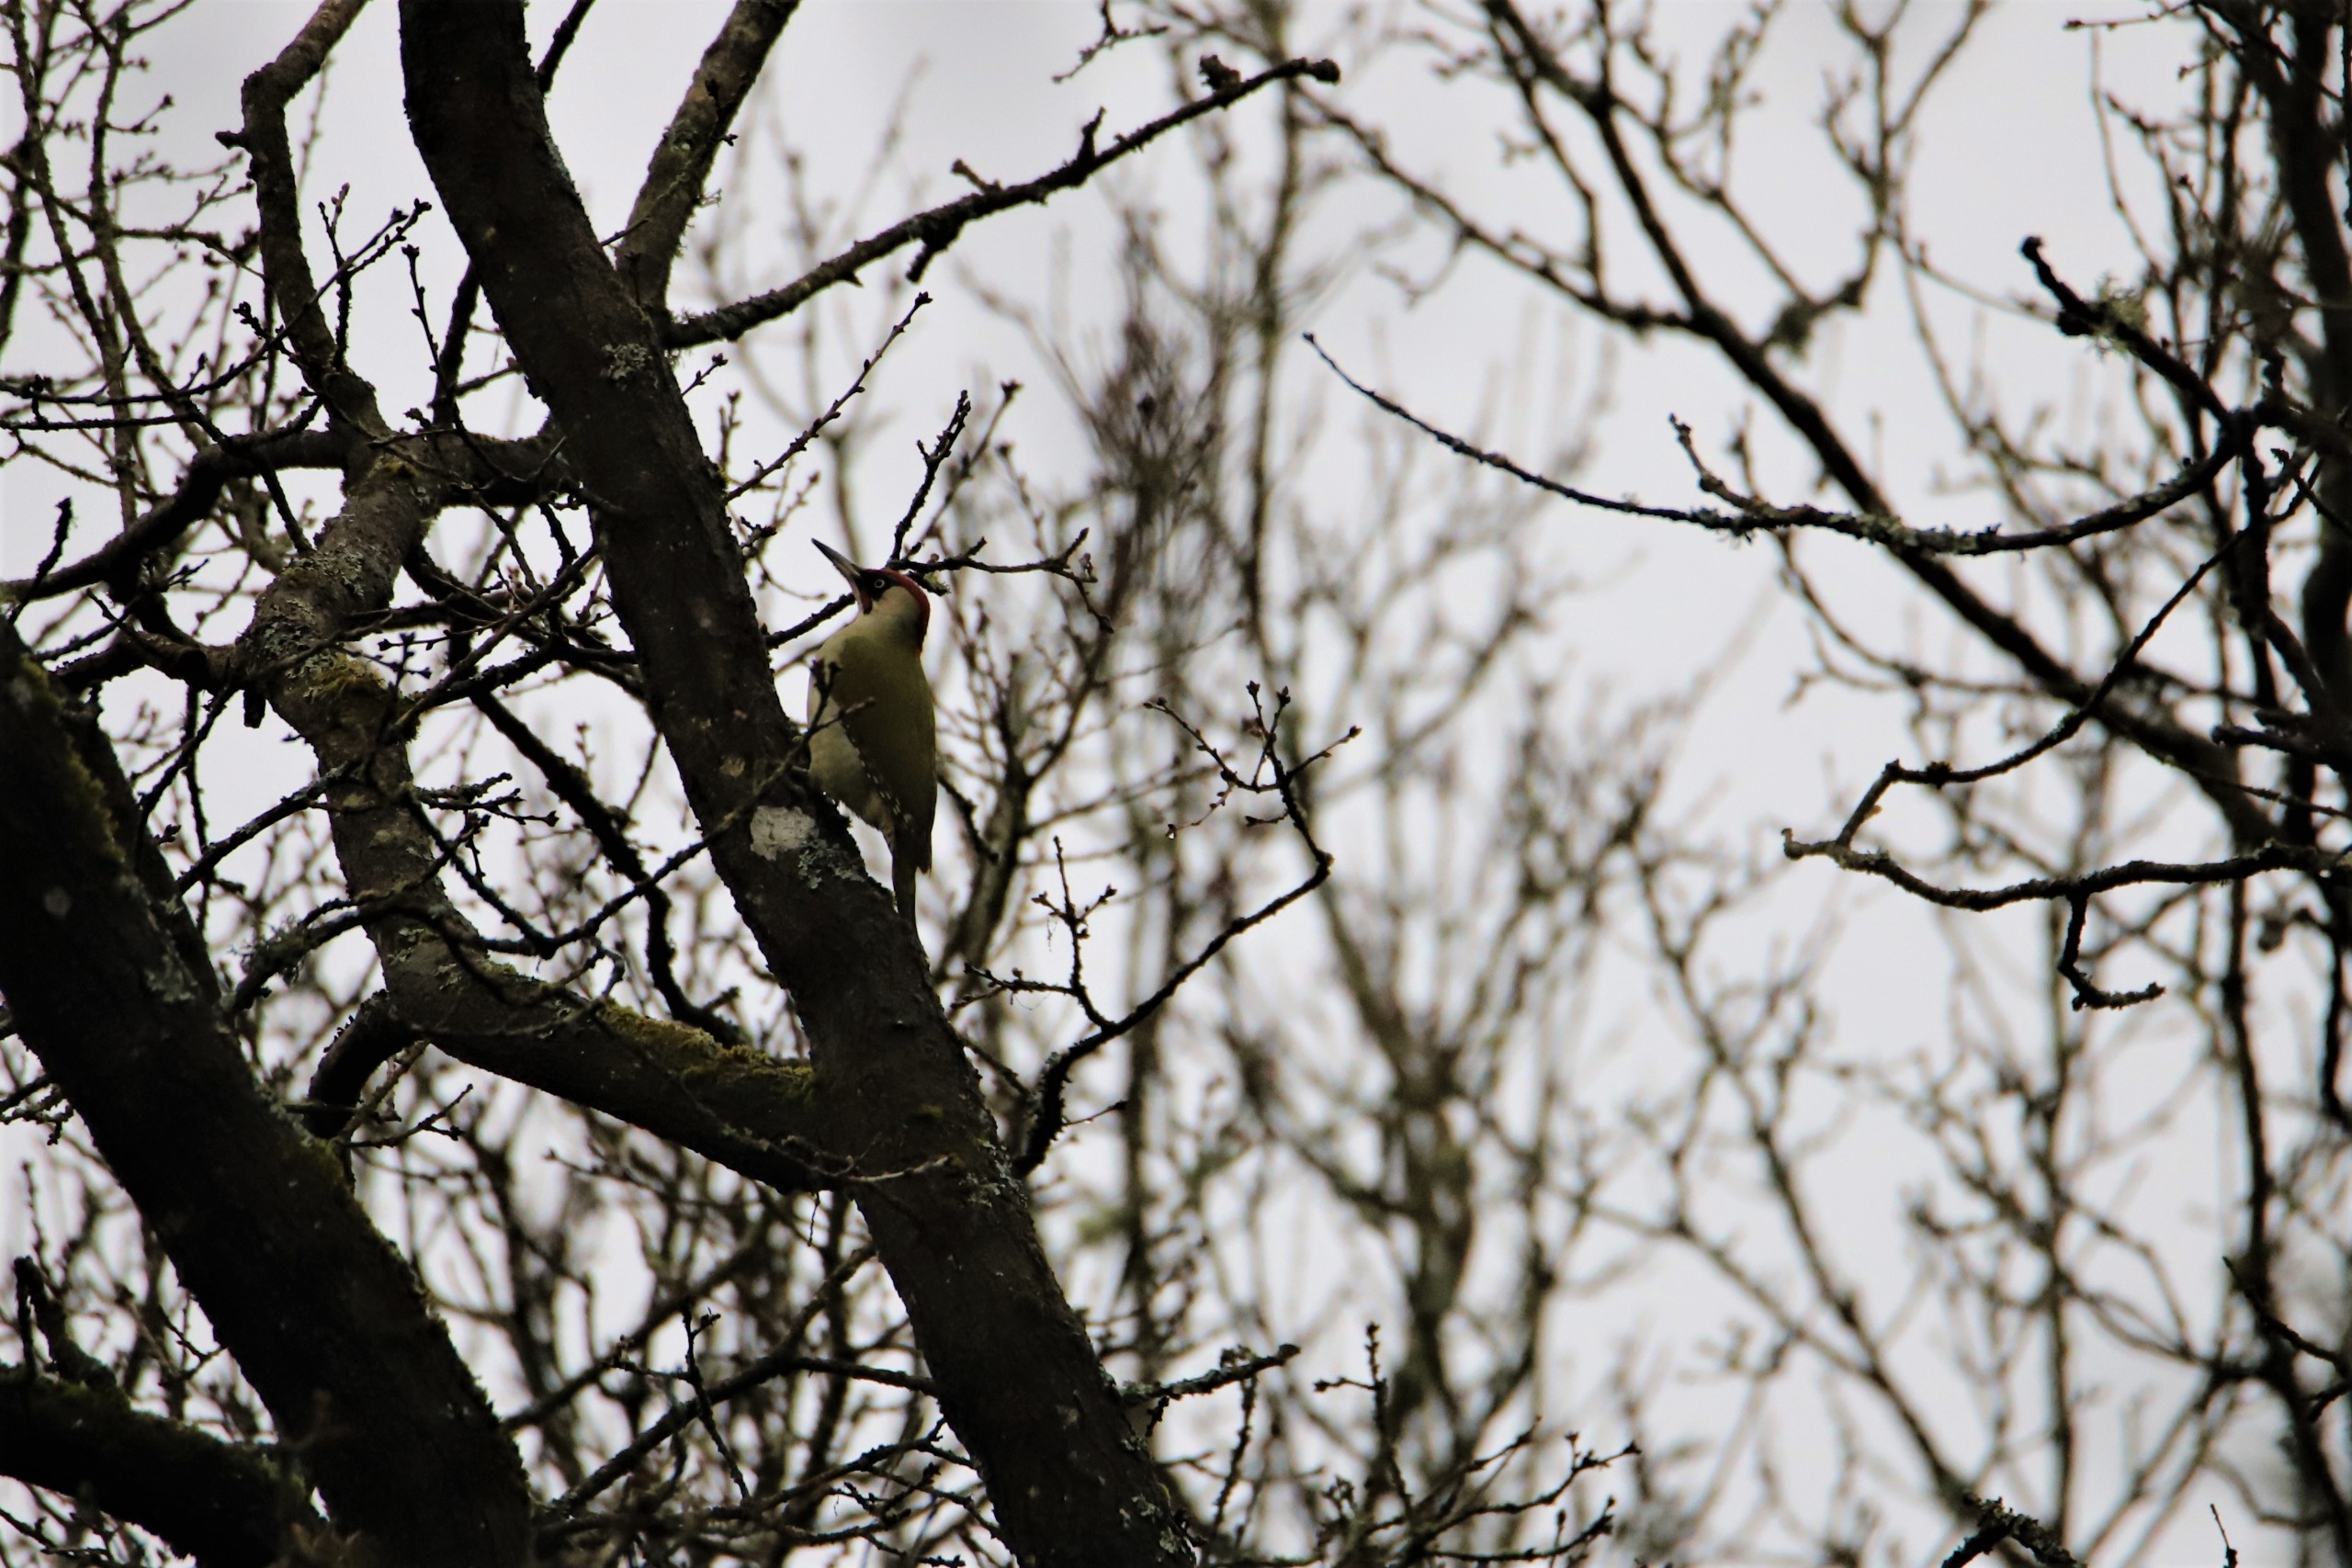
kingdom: Animalia
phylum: Chordata
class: Aves
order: Piciformes
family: Picidae
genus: Picus
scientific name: Picus viridis
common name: Grønspætte
